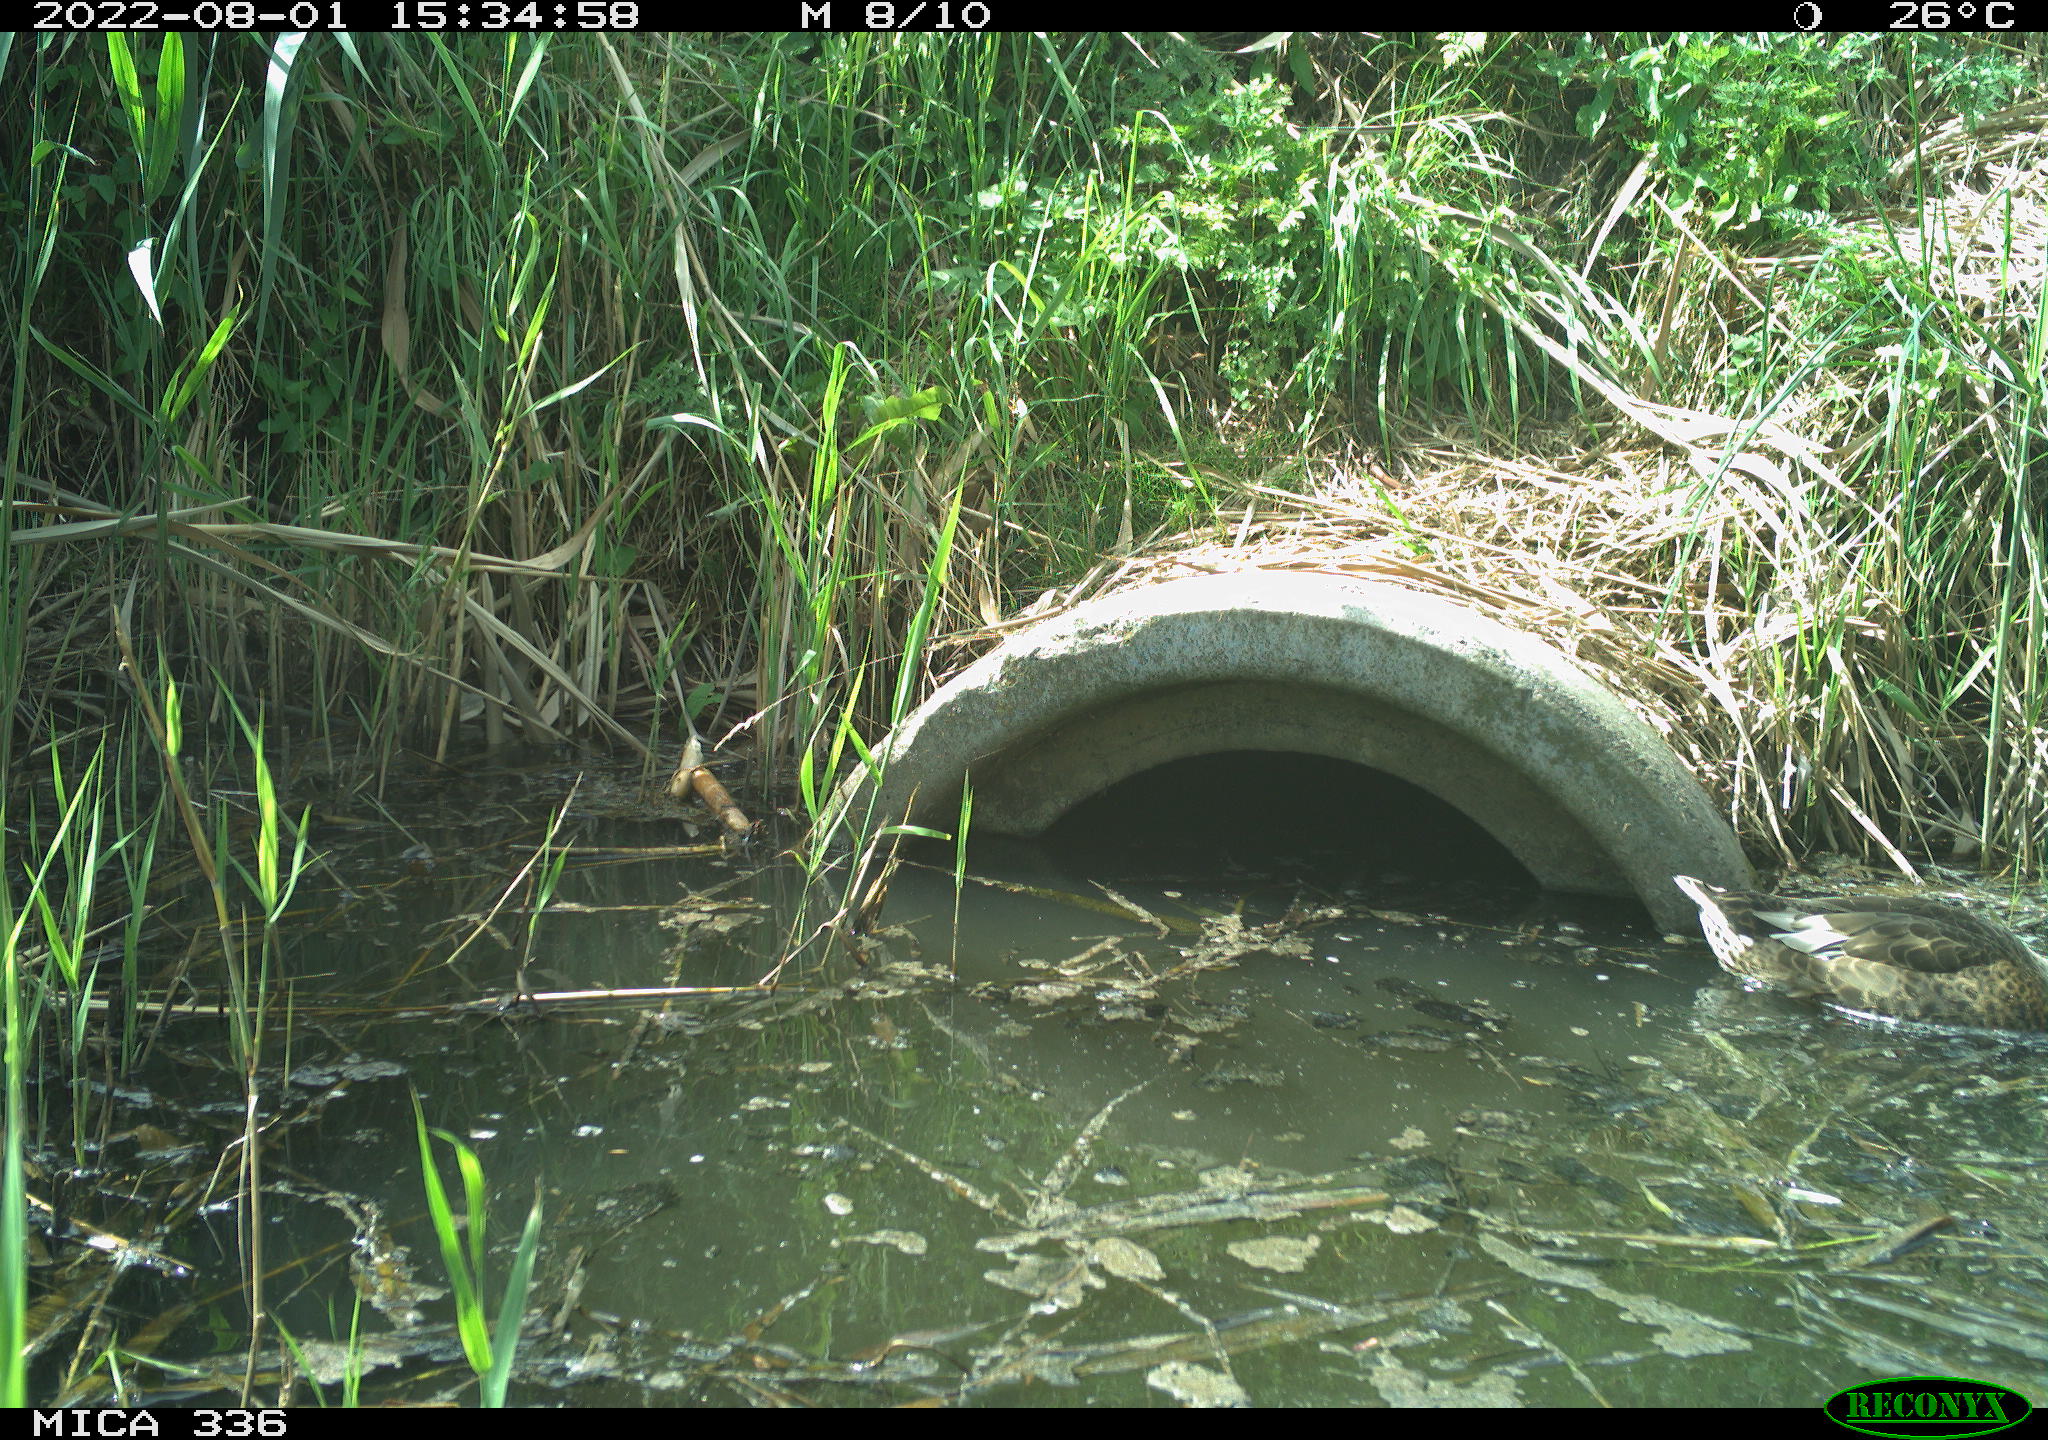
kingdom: Animalia
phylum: Chordata
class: Aves
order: Anseriformes
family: Anatidae
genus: Anas
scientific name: Anas platyrhynchos
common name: Mallard
